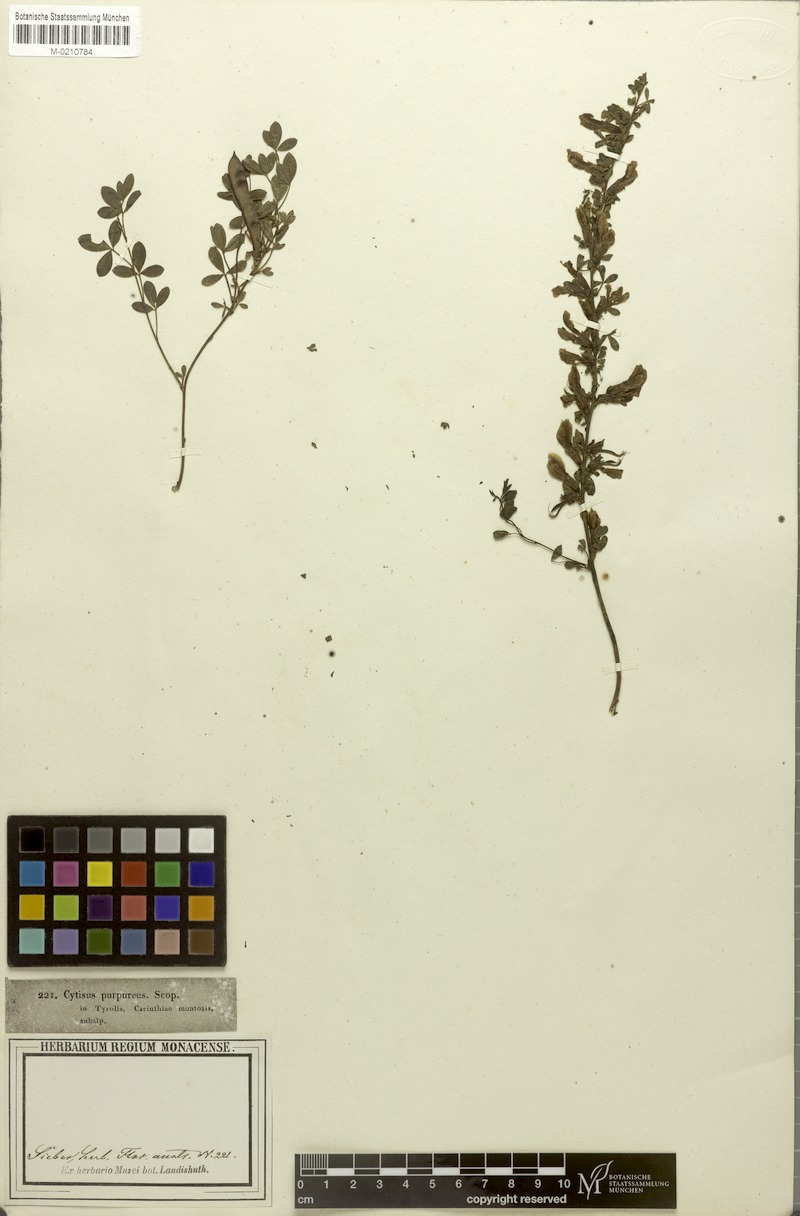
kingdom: Plantae
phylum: Tracheophyta
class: Magnoliopsida
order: Fabales
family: Fabaceae
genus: Chamaecytisus
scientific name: Chamaecytisus purpureus
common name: Purple broom
